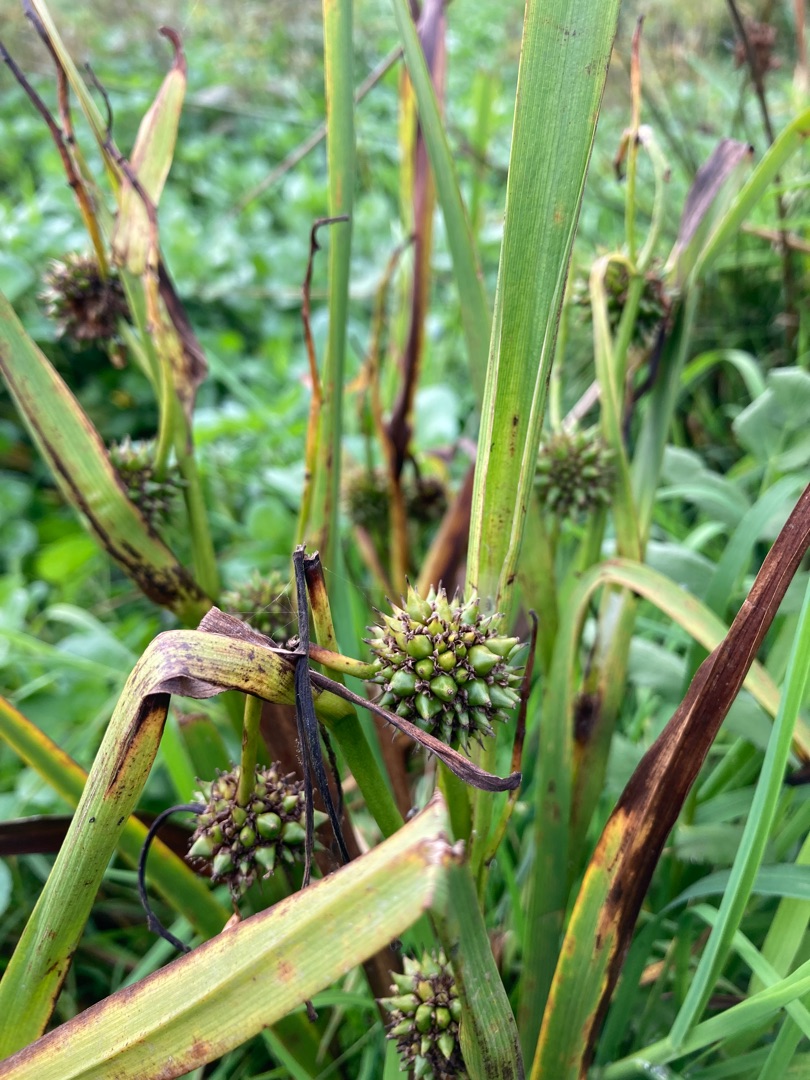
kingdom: Plantae
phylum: Tracheophyta
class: Liliopsida
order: Poales
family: Typhaceae
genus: Sparganium
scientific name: Sparganium erectum
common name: Sodfarvet pindsvineknop
